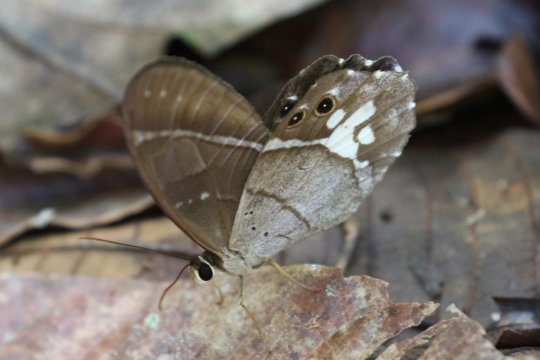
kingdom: Animalia
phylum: Arthropoda
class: Insecta
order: Lepidoptera
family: Nymphalidae
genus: Pierella
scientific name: Pierella lena
